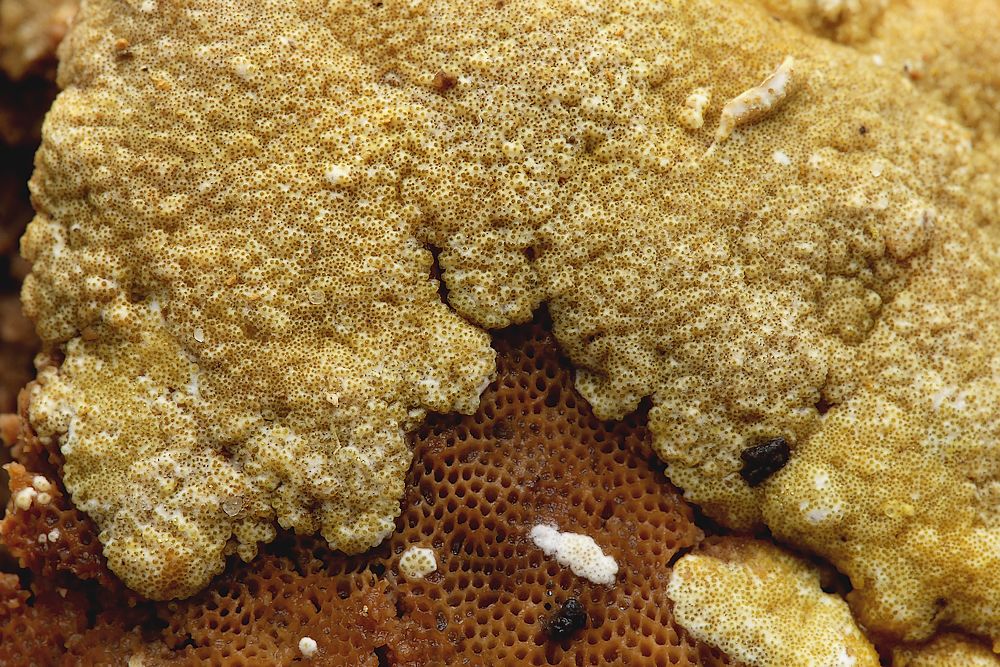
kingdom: Fungi
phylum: Ascomycota
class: Sordariomycetes
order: Hypocreales
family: Hypocreaceae
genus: Trichoderma
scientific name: Trichoderma protopulvinatum
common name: hovpore-kødkerne
